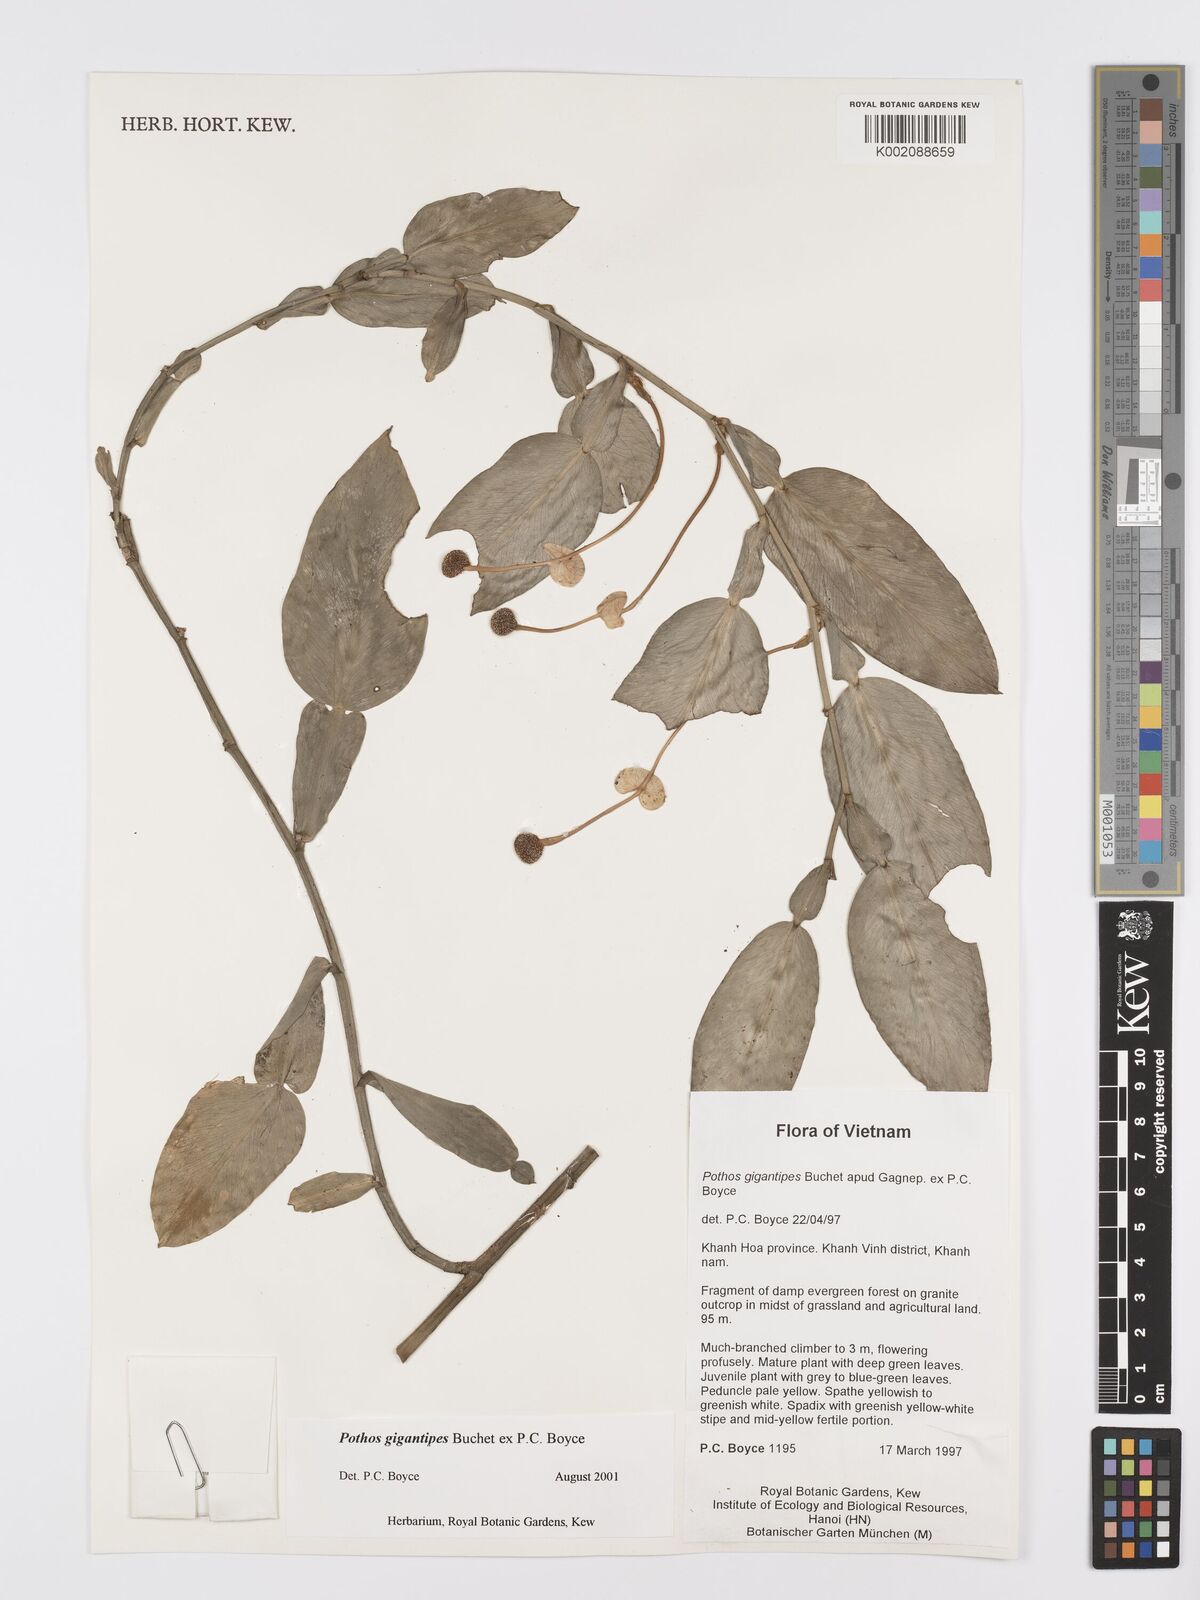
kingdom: Plantae
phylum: Tracheophyta
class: Liliopsida
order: Alismatales
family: Araceae
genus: Pothos
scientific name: Pothos gigantipes
